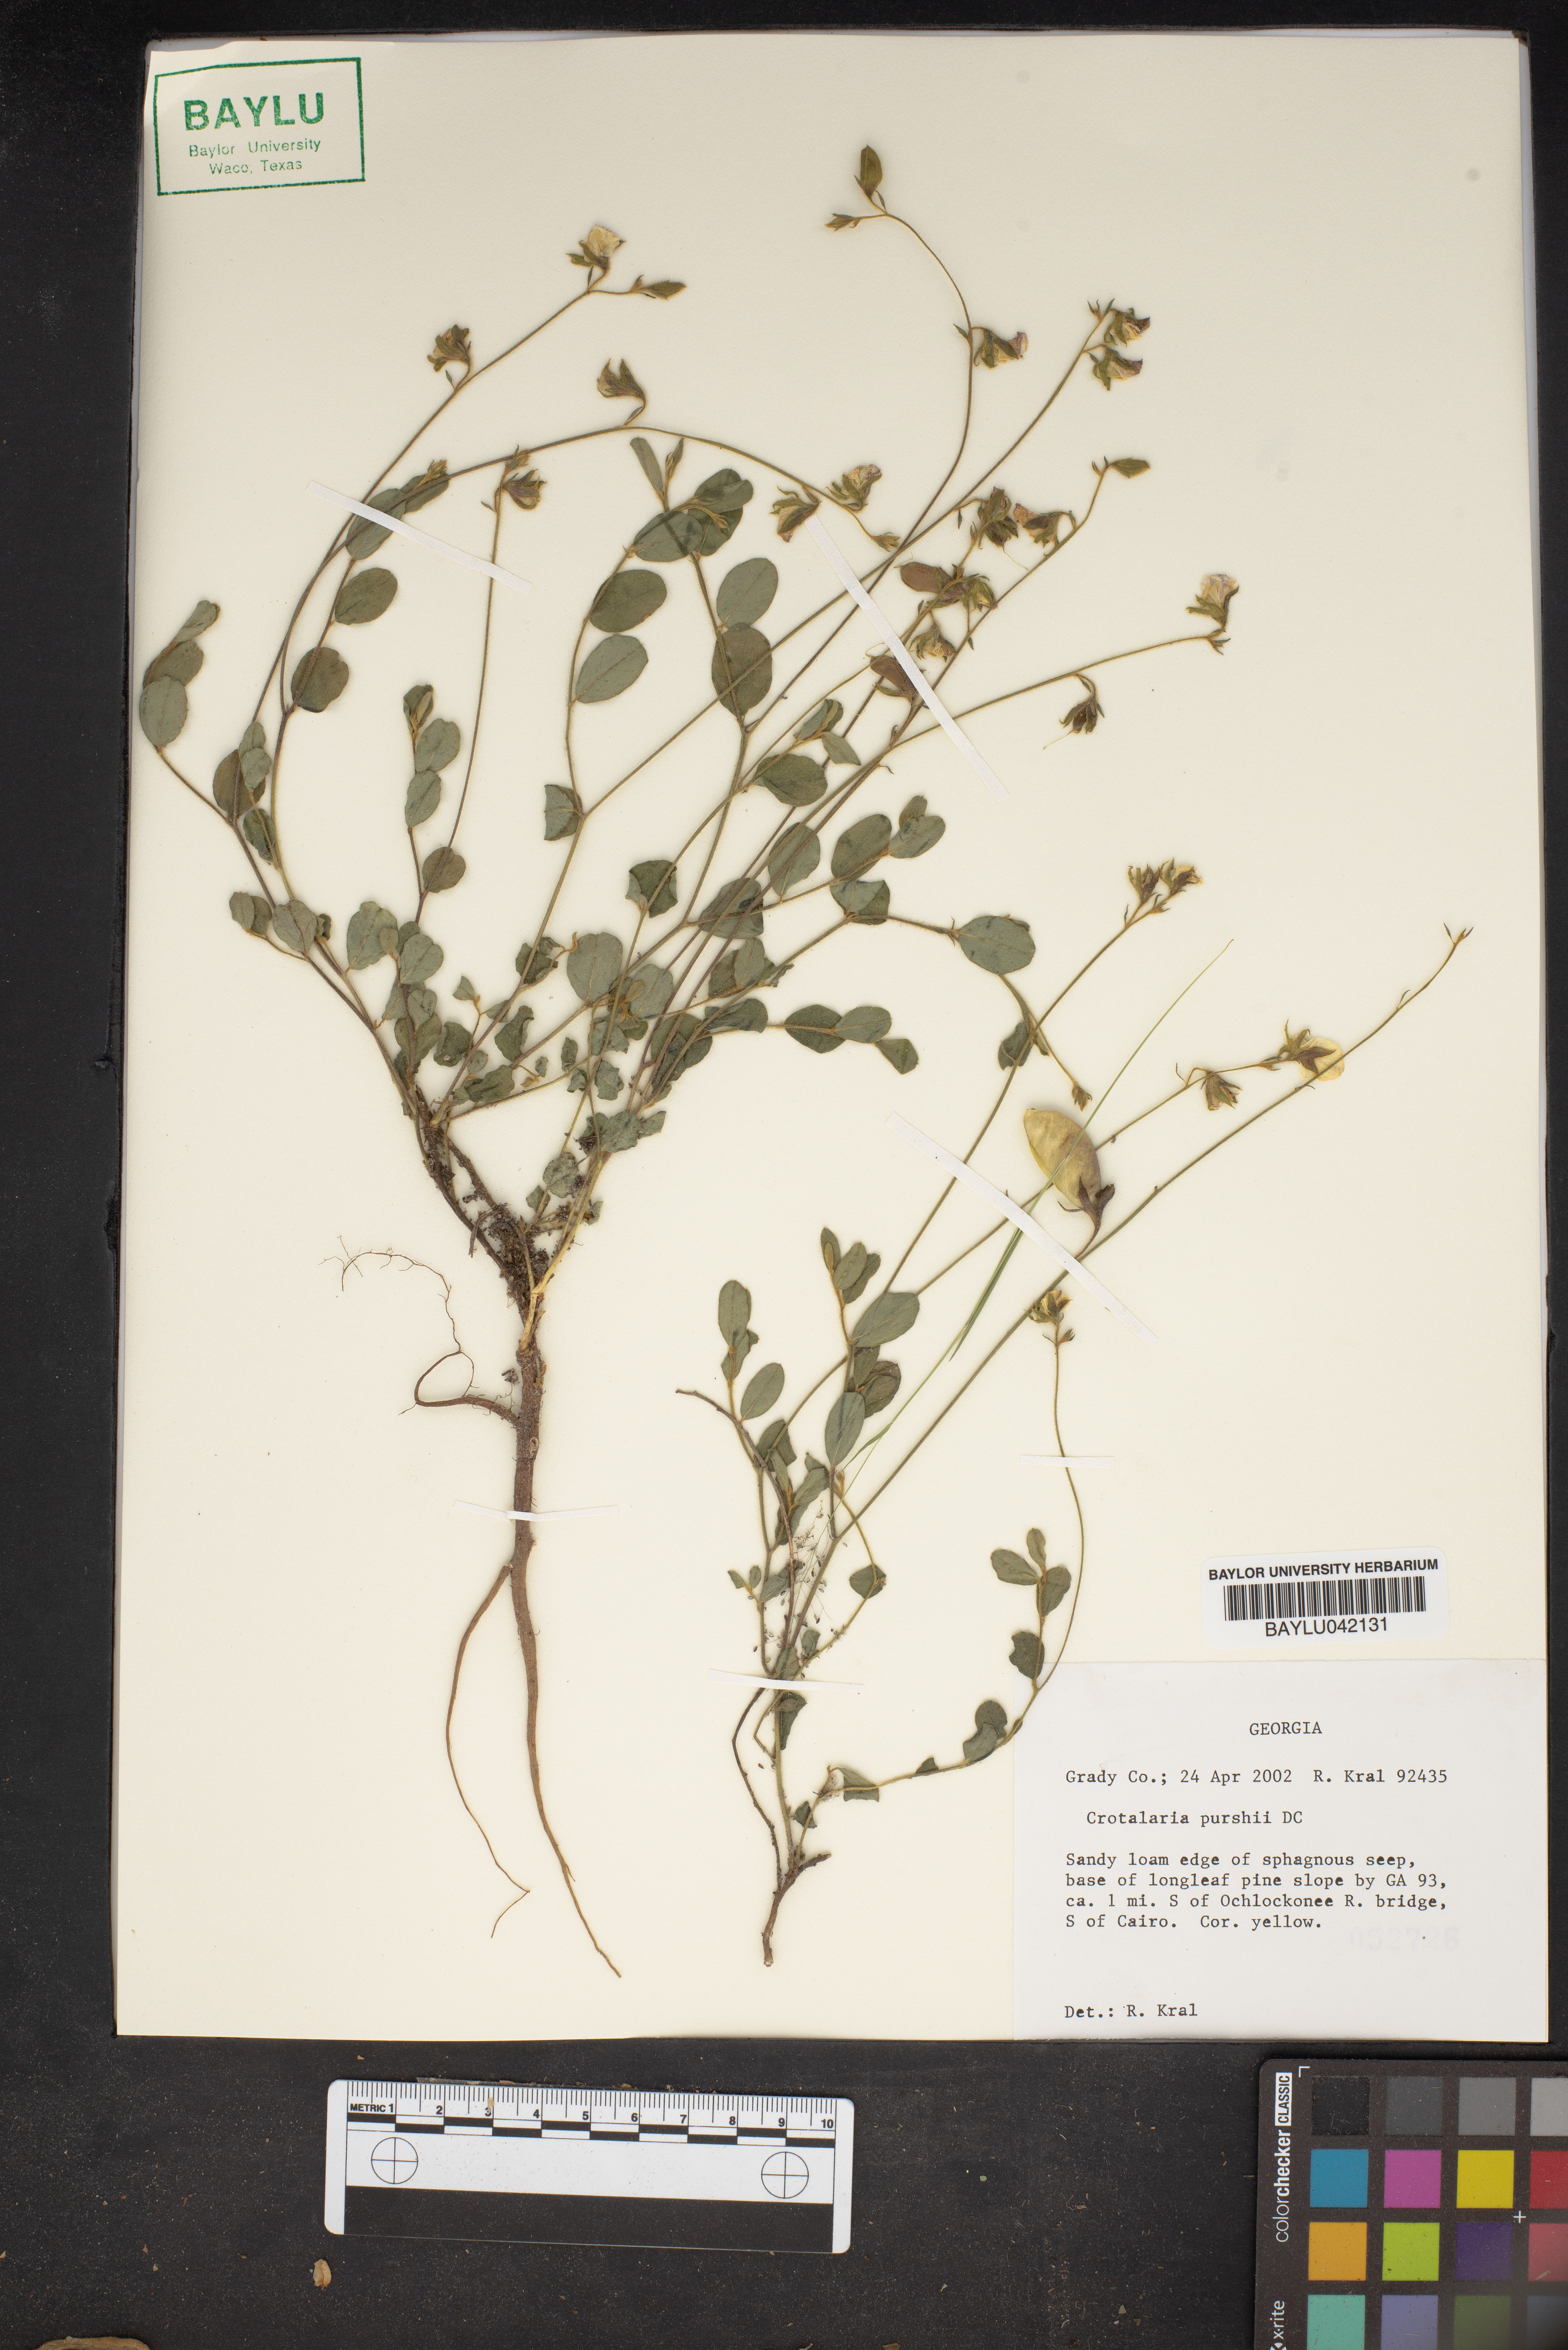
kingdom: Plantae
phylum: Tracheophyta
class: Magnoliopsida
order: Fabales
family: Fabaceae
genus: Crotalaria
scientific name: Crotalaria purshii
